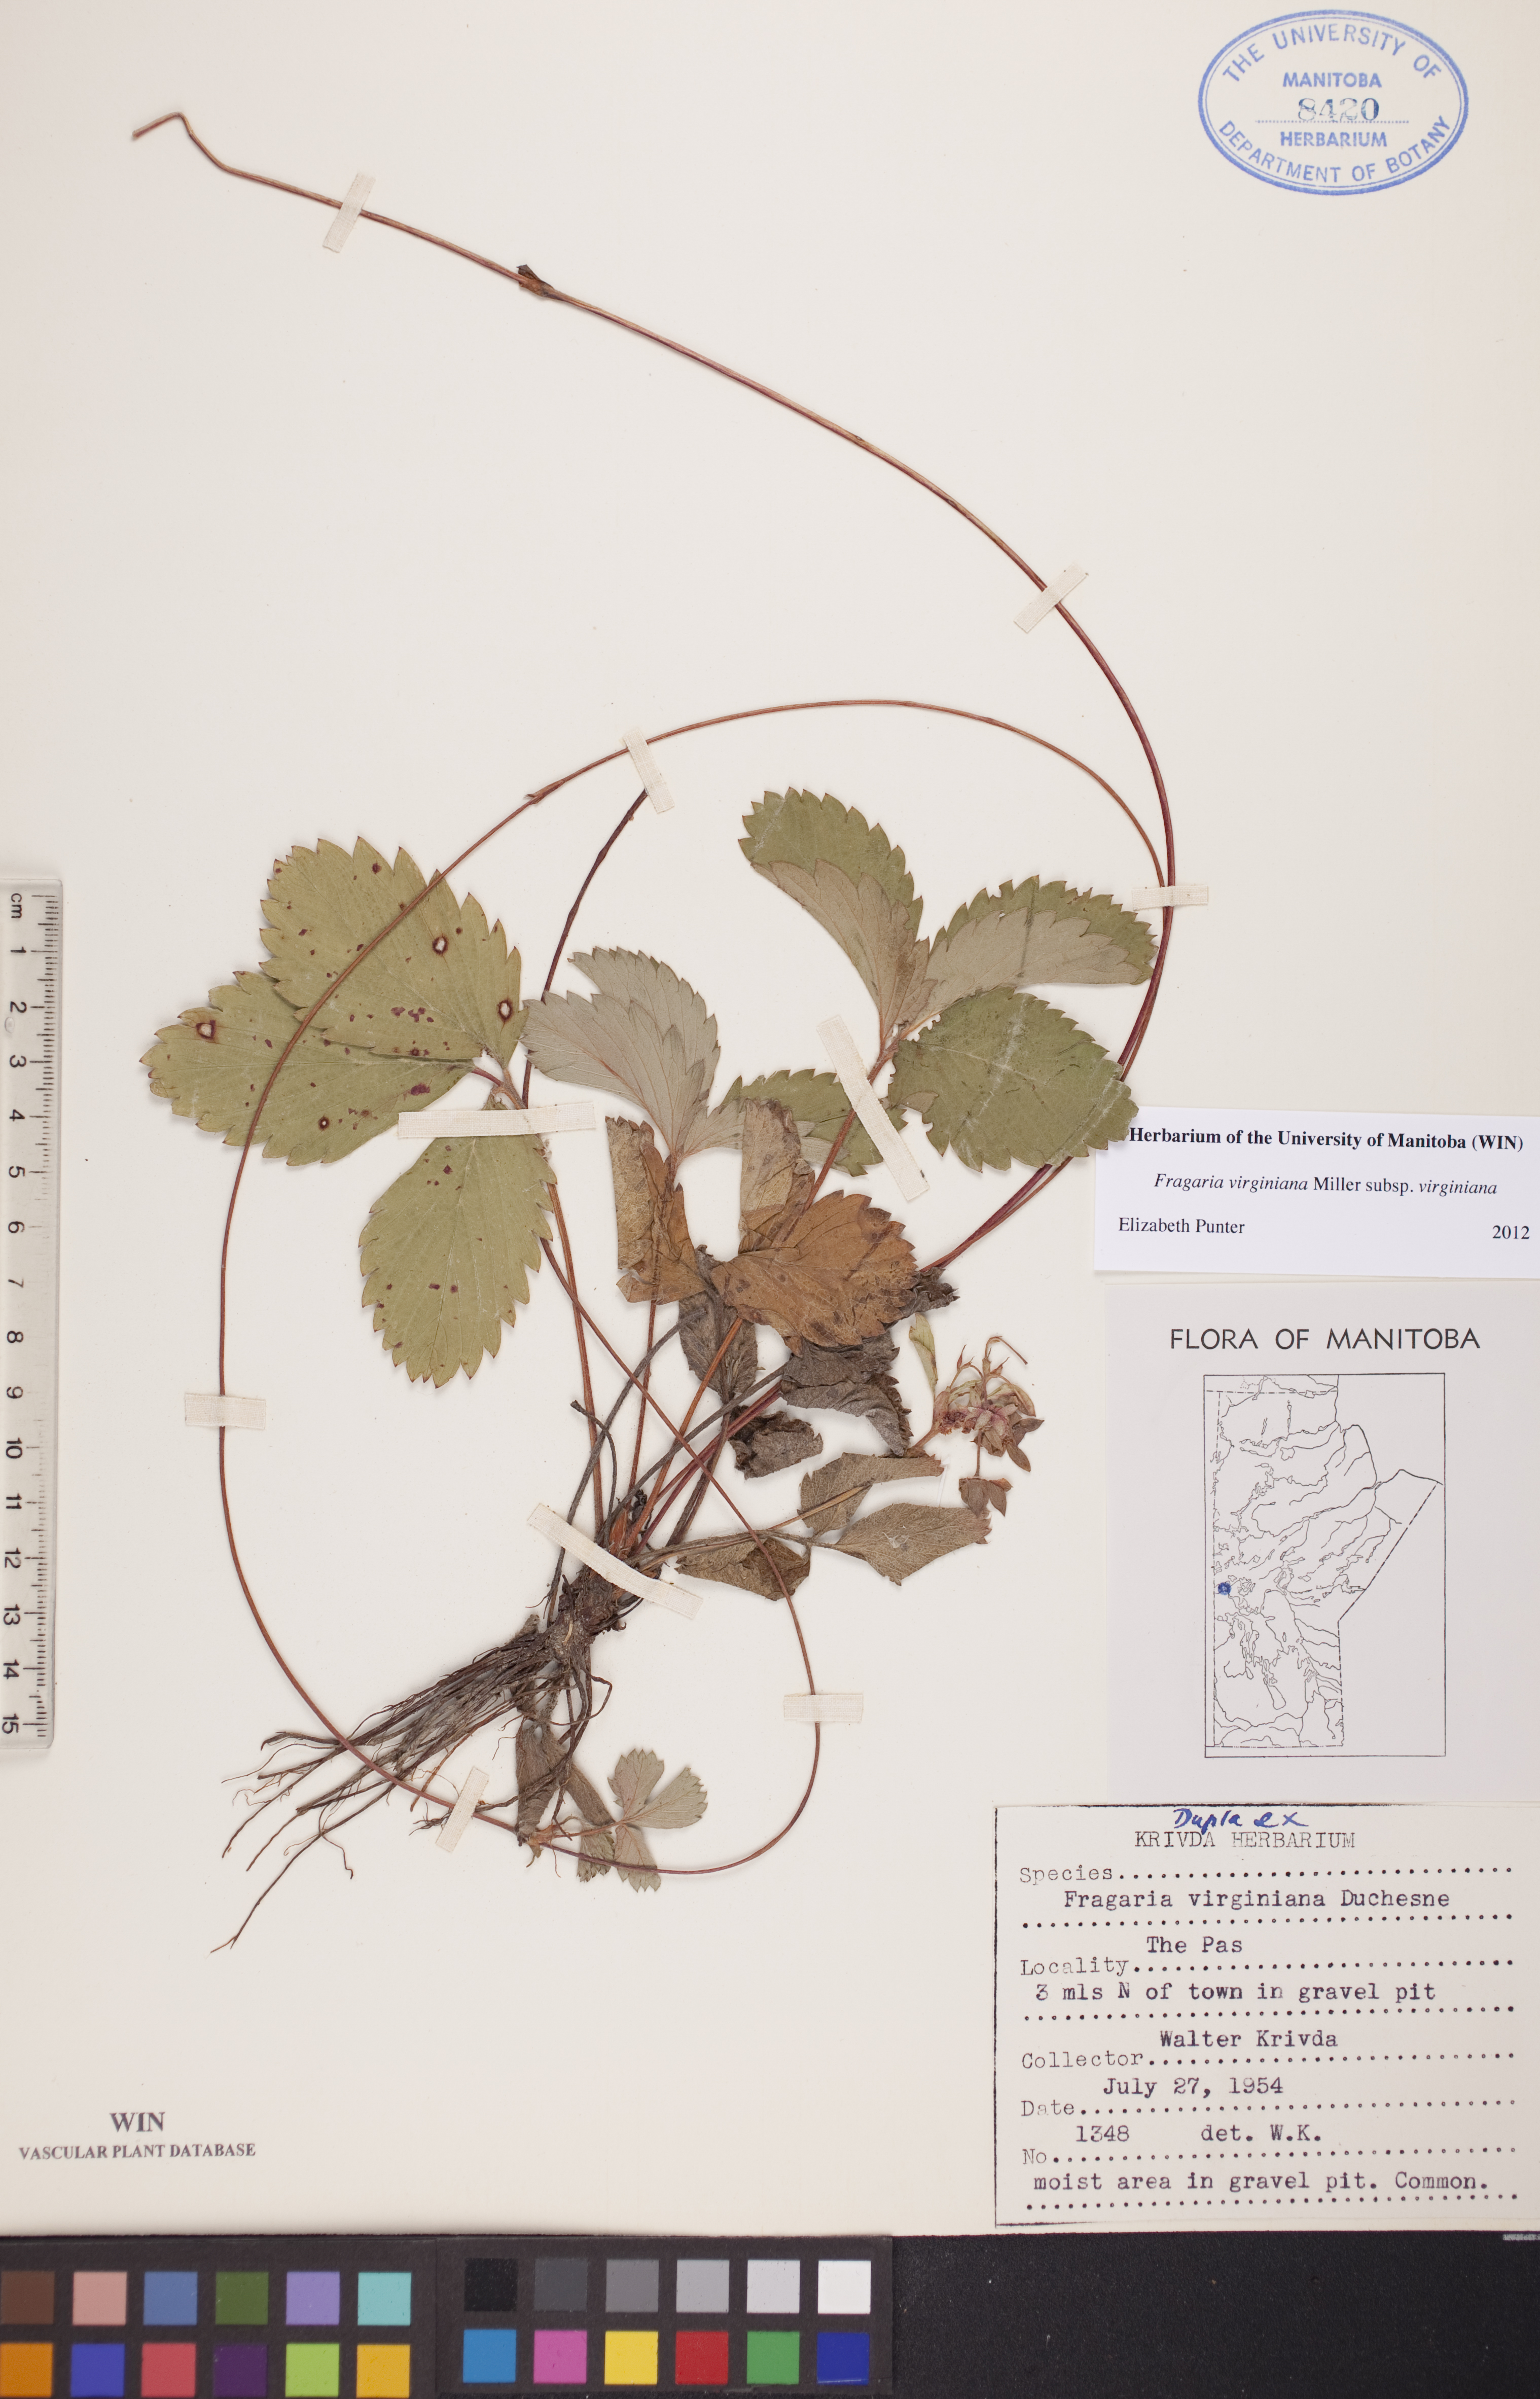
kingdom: Plantae
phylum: Tracheophyta
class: Magnoliopsida
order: Rosales
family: Rosaceae
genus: Fragaria
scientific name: Fragaria virginiana
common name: Thickleaved wild strawberry
